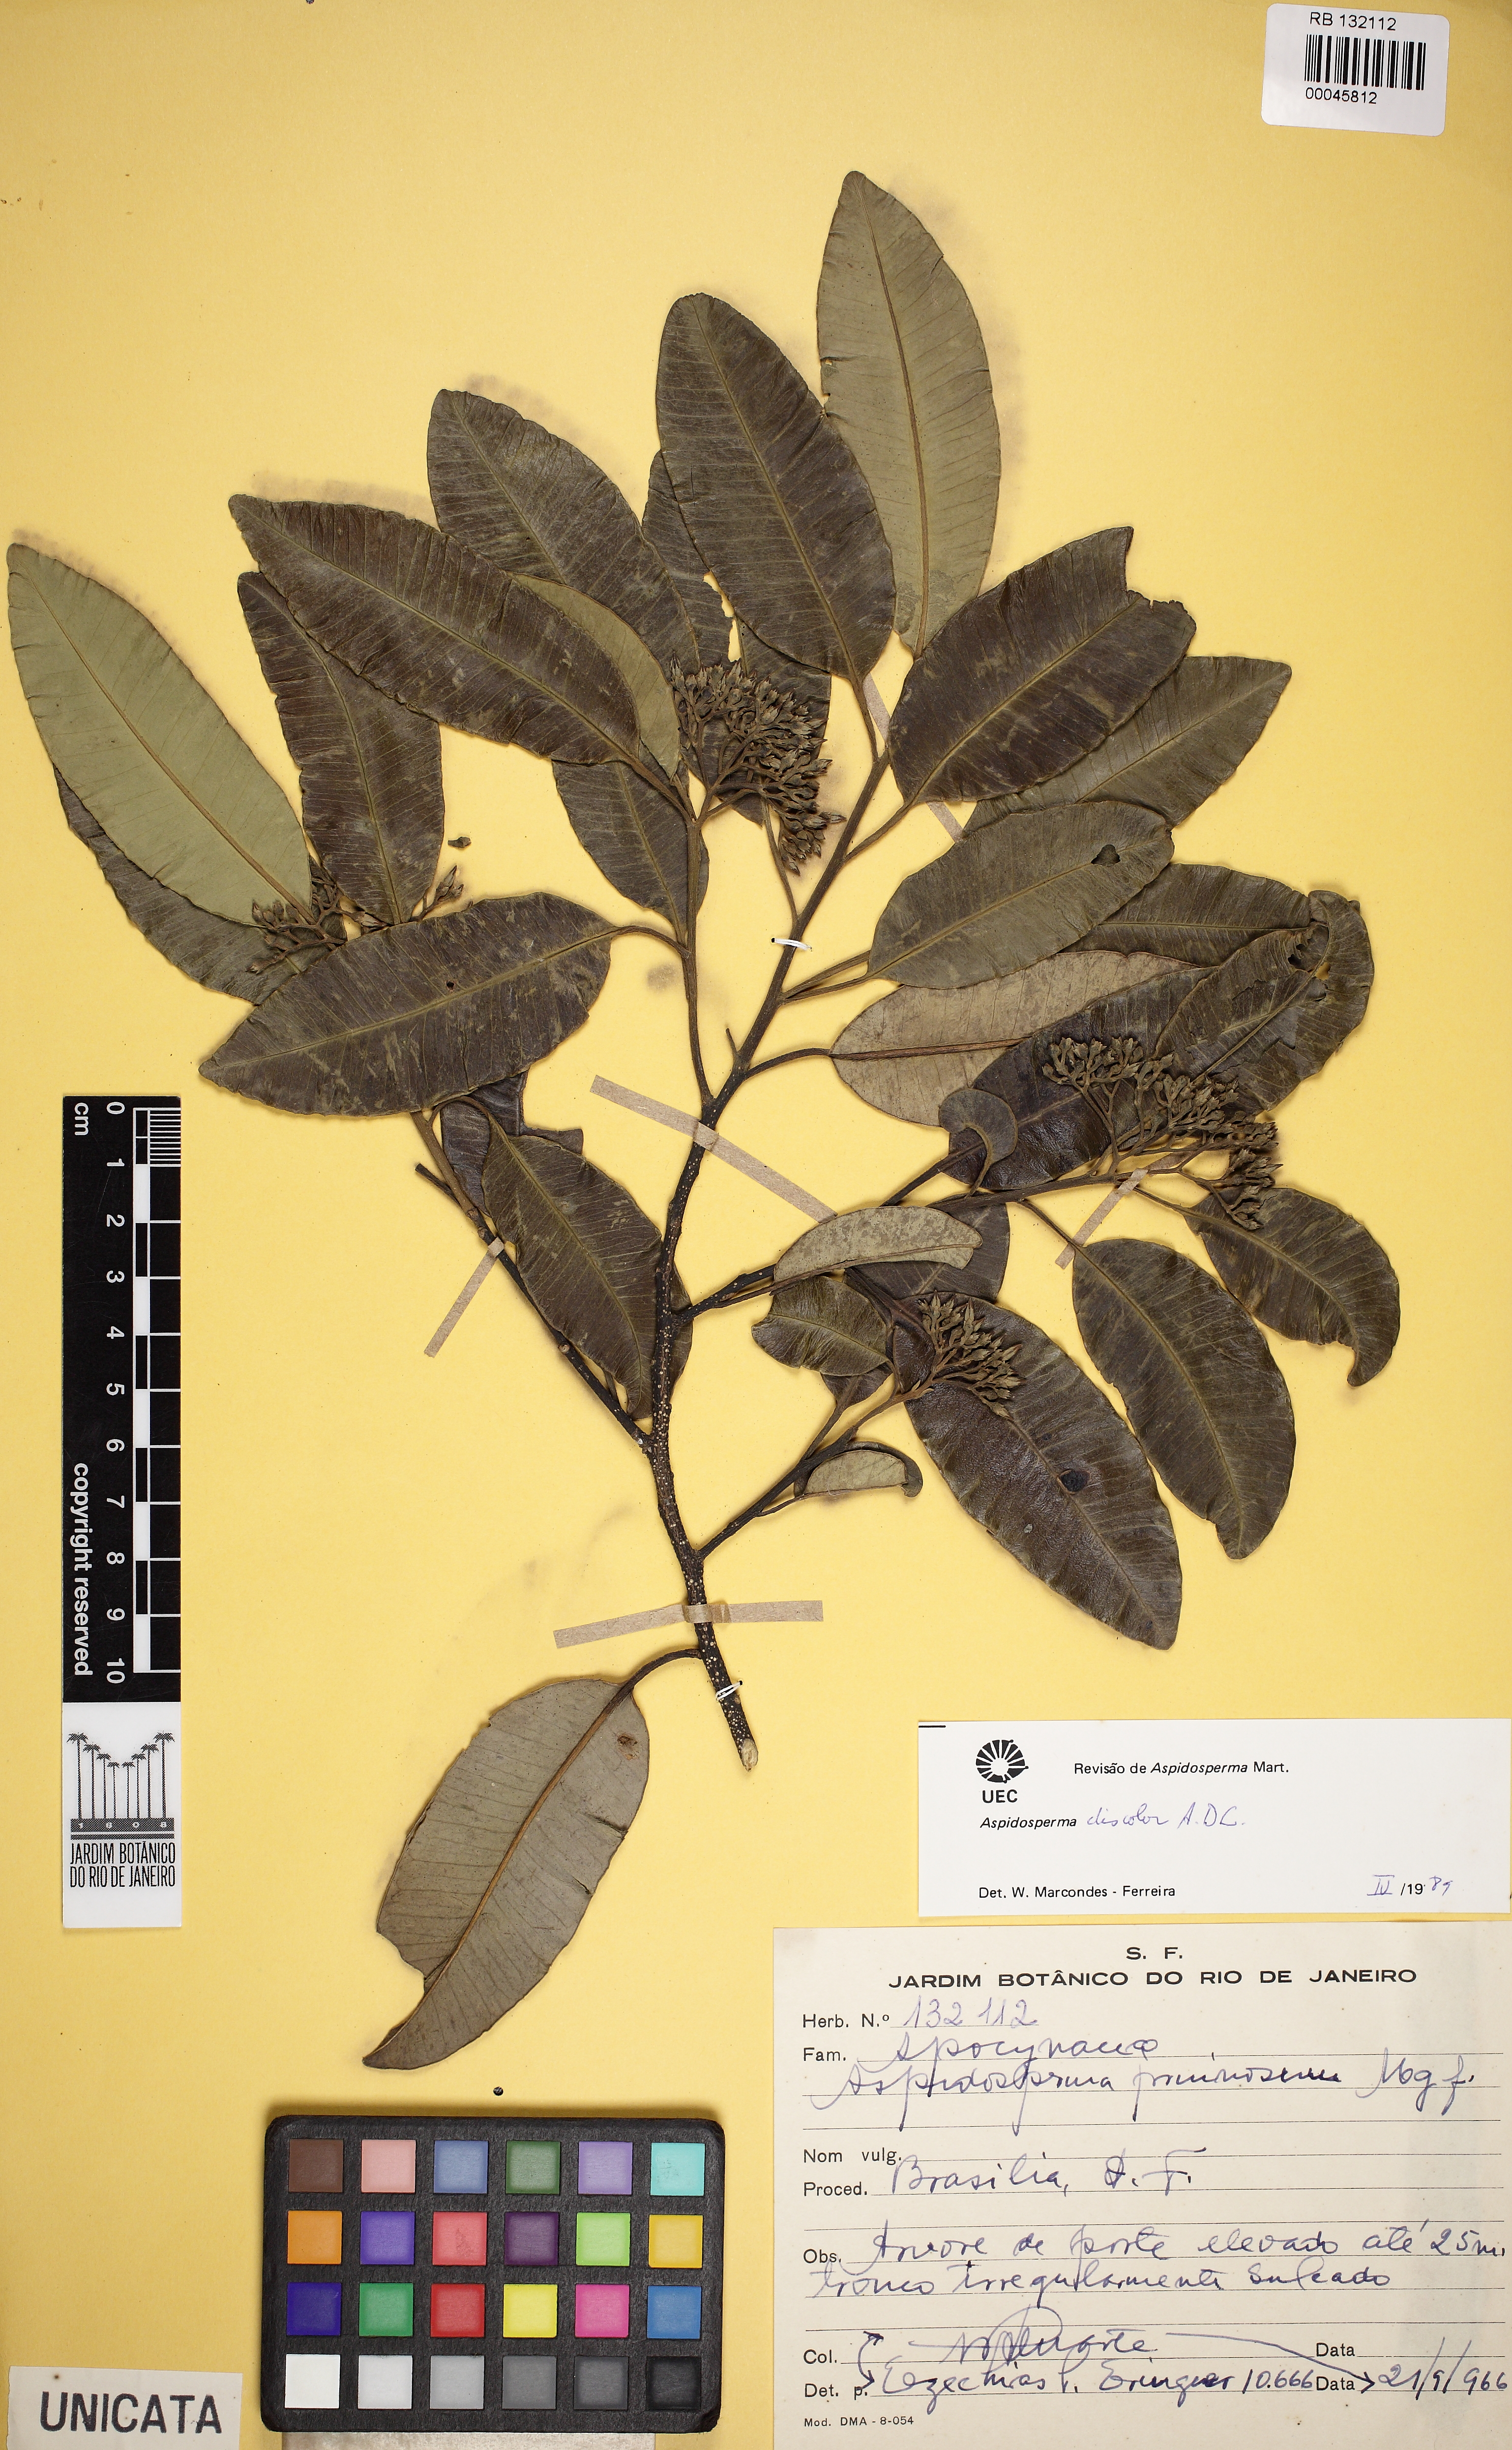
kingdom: Plantae
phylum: Tracheophyta
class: Magnoliopsida
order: Gentianales
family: Apocynaceae
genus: Aspidosperma
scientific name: Aspidosperma discolor
